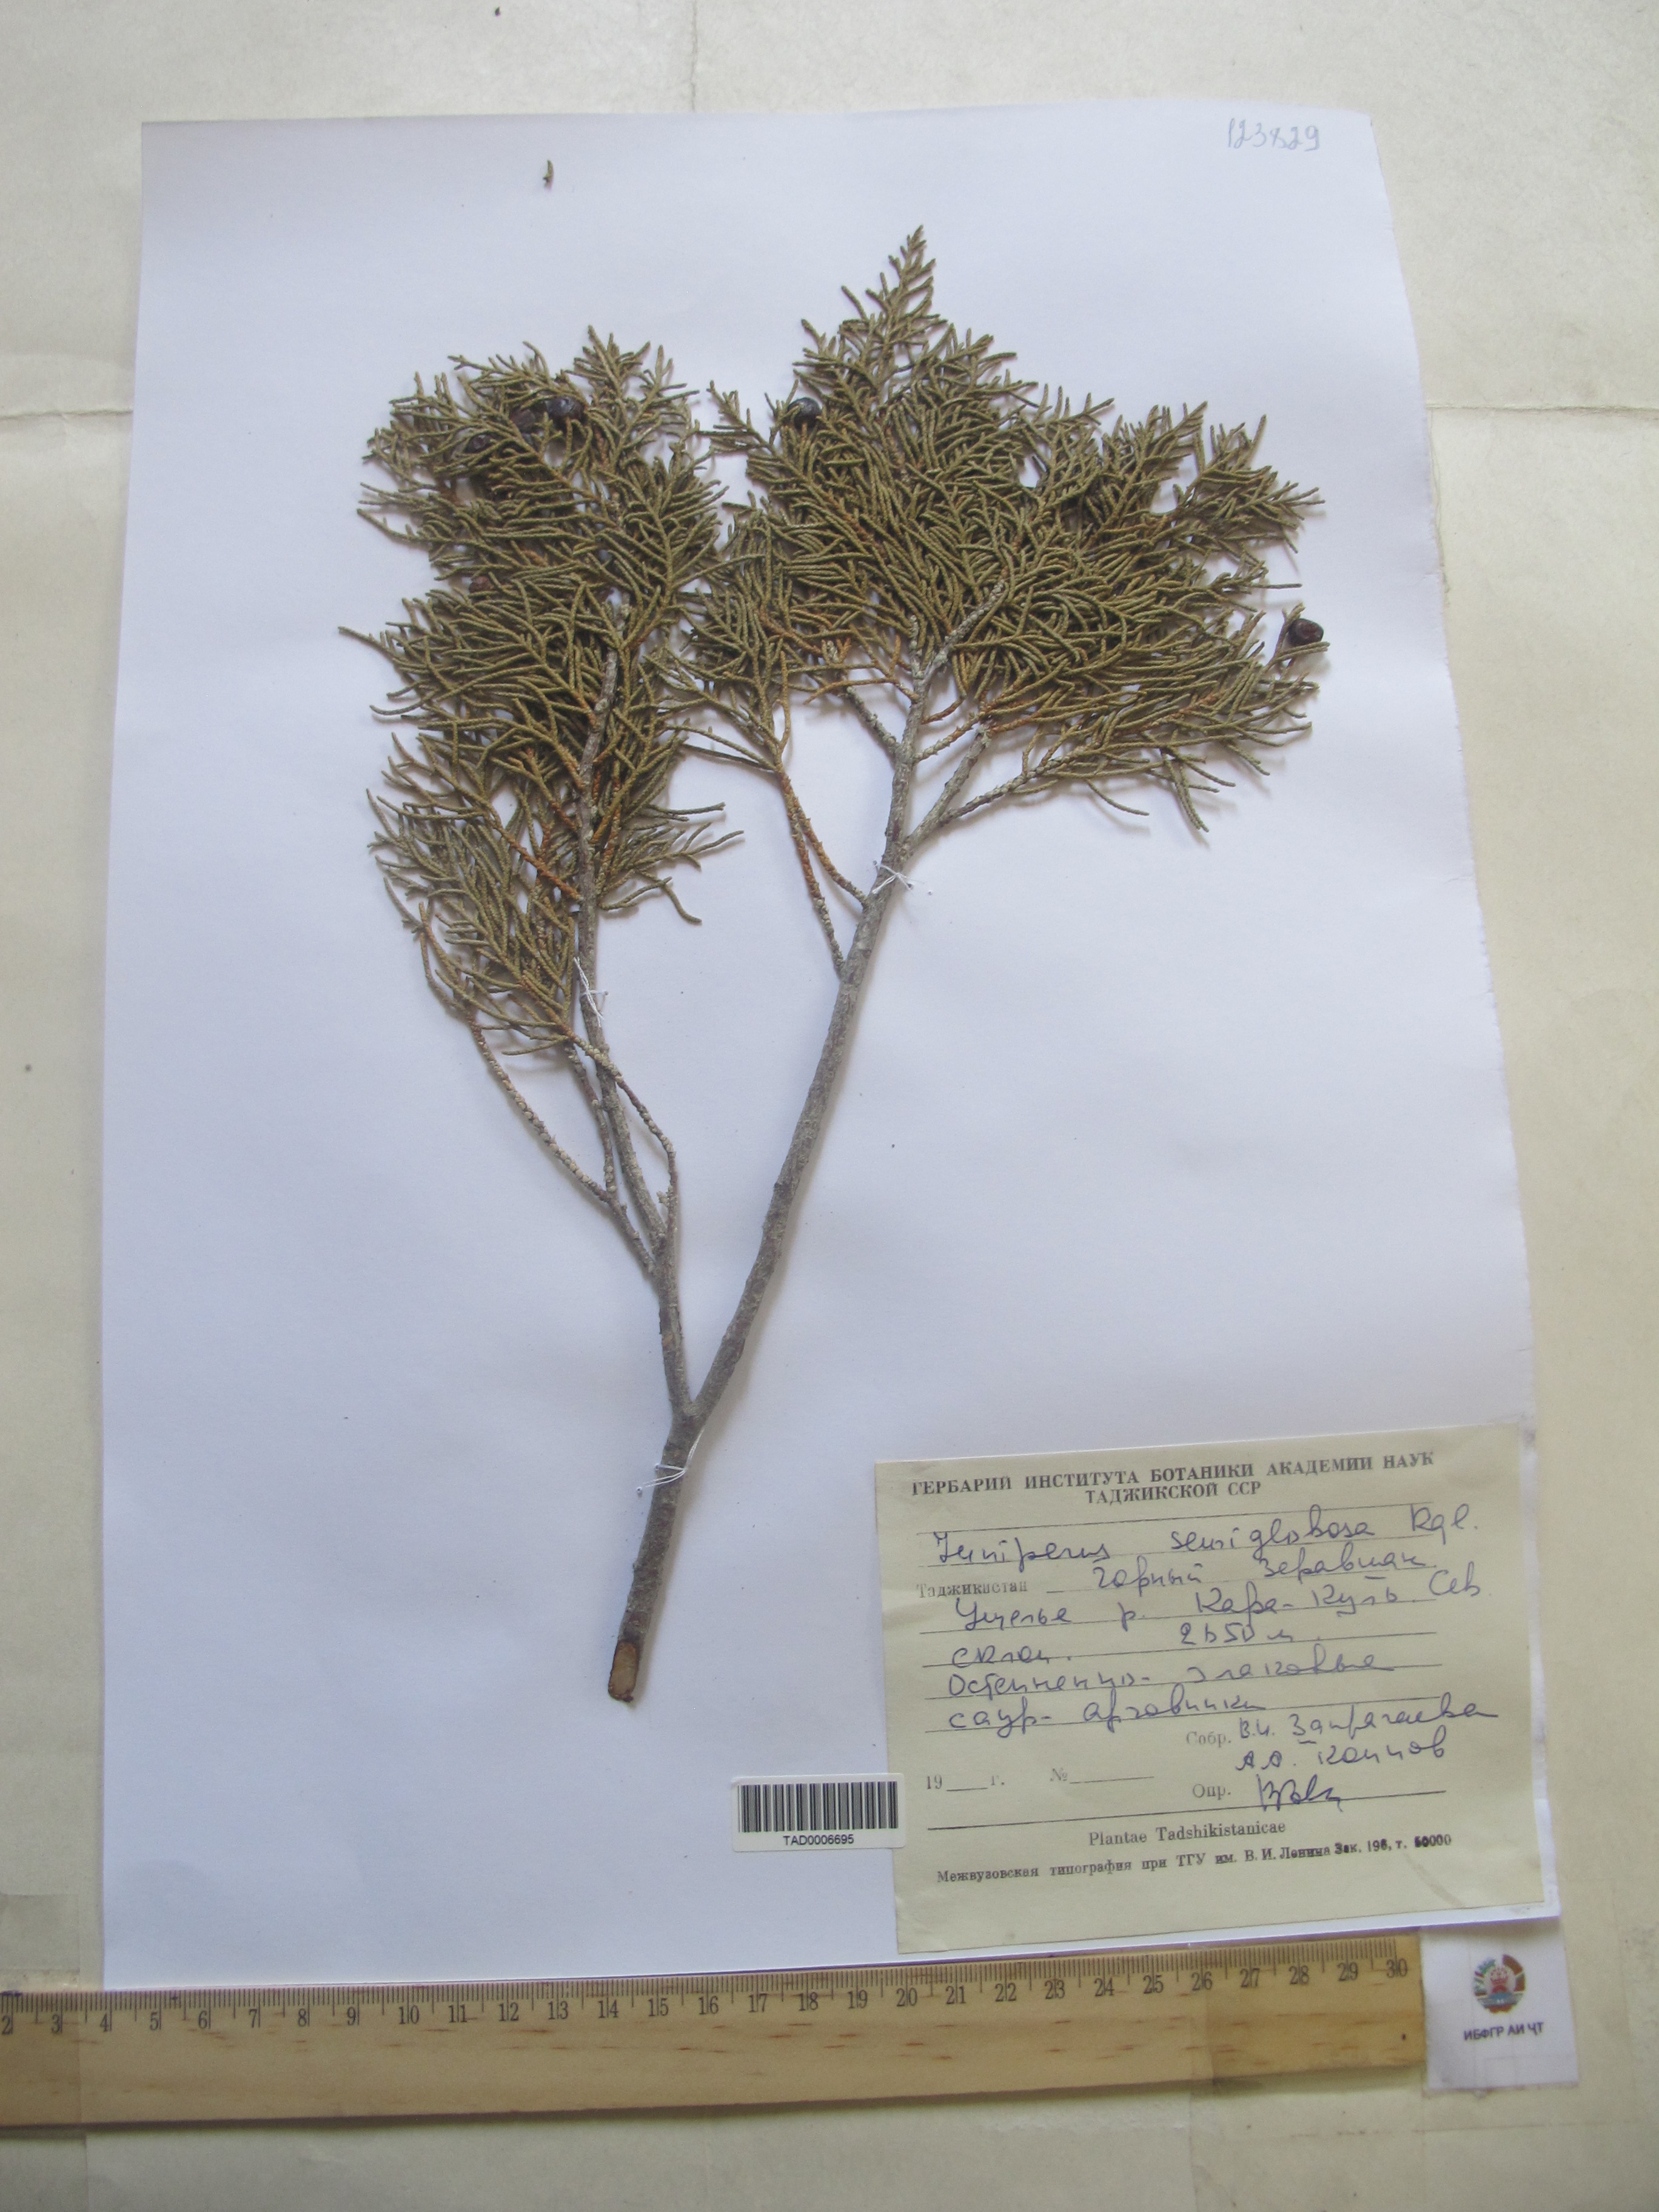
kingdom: Plantae
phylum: Tracheophyta
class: Pinopsida
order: Pinales
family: Cupressaceae
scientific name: Cupressaceae
